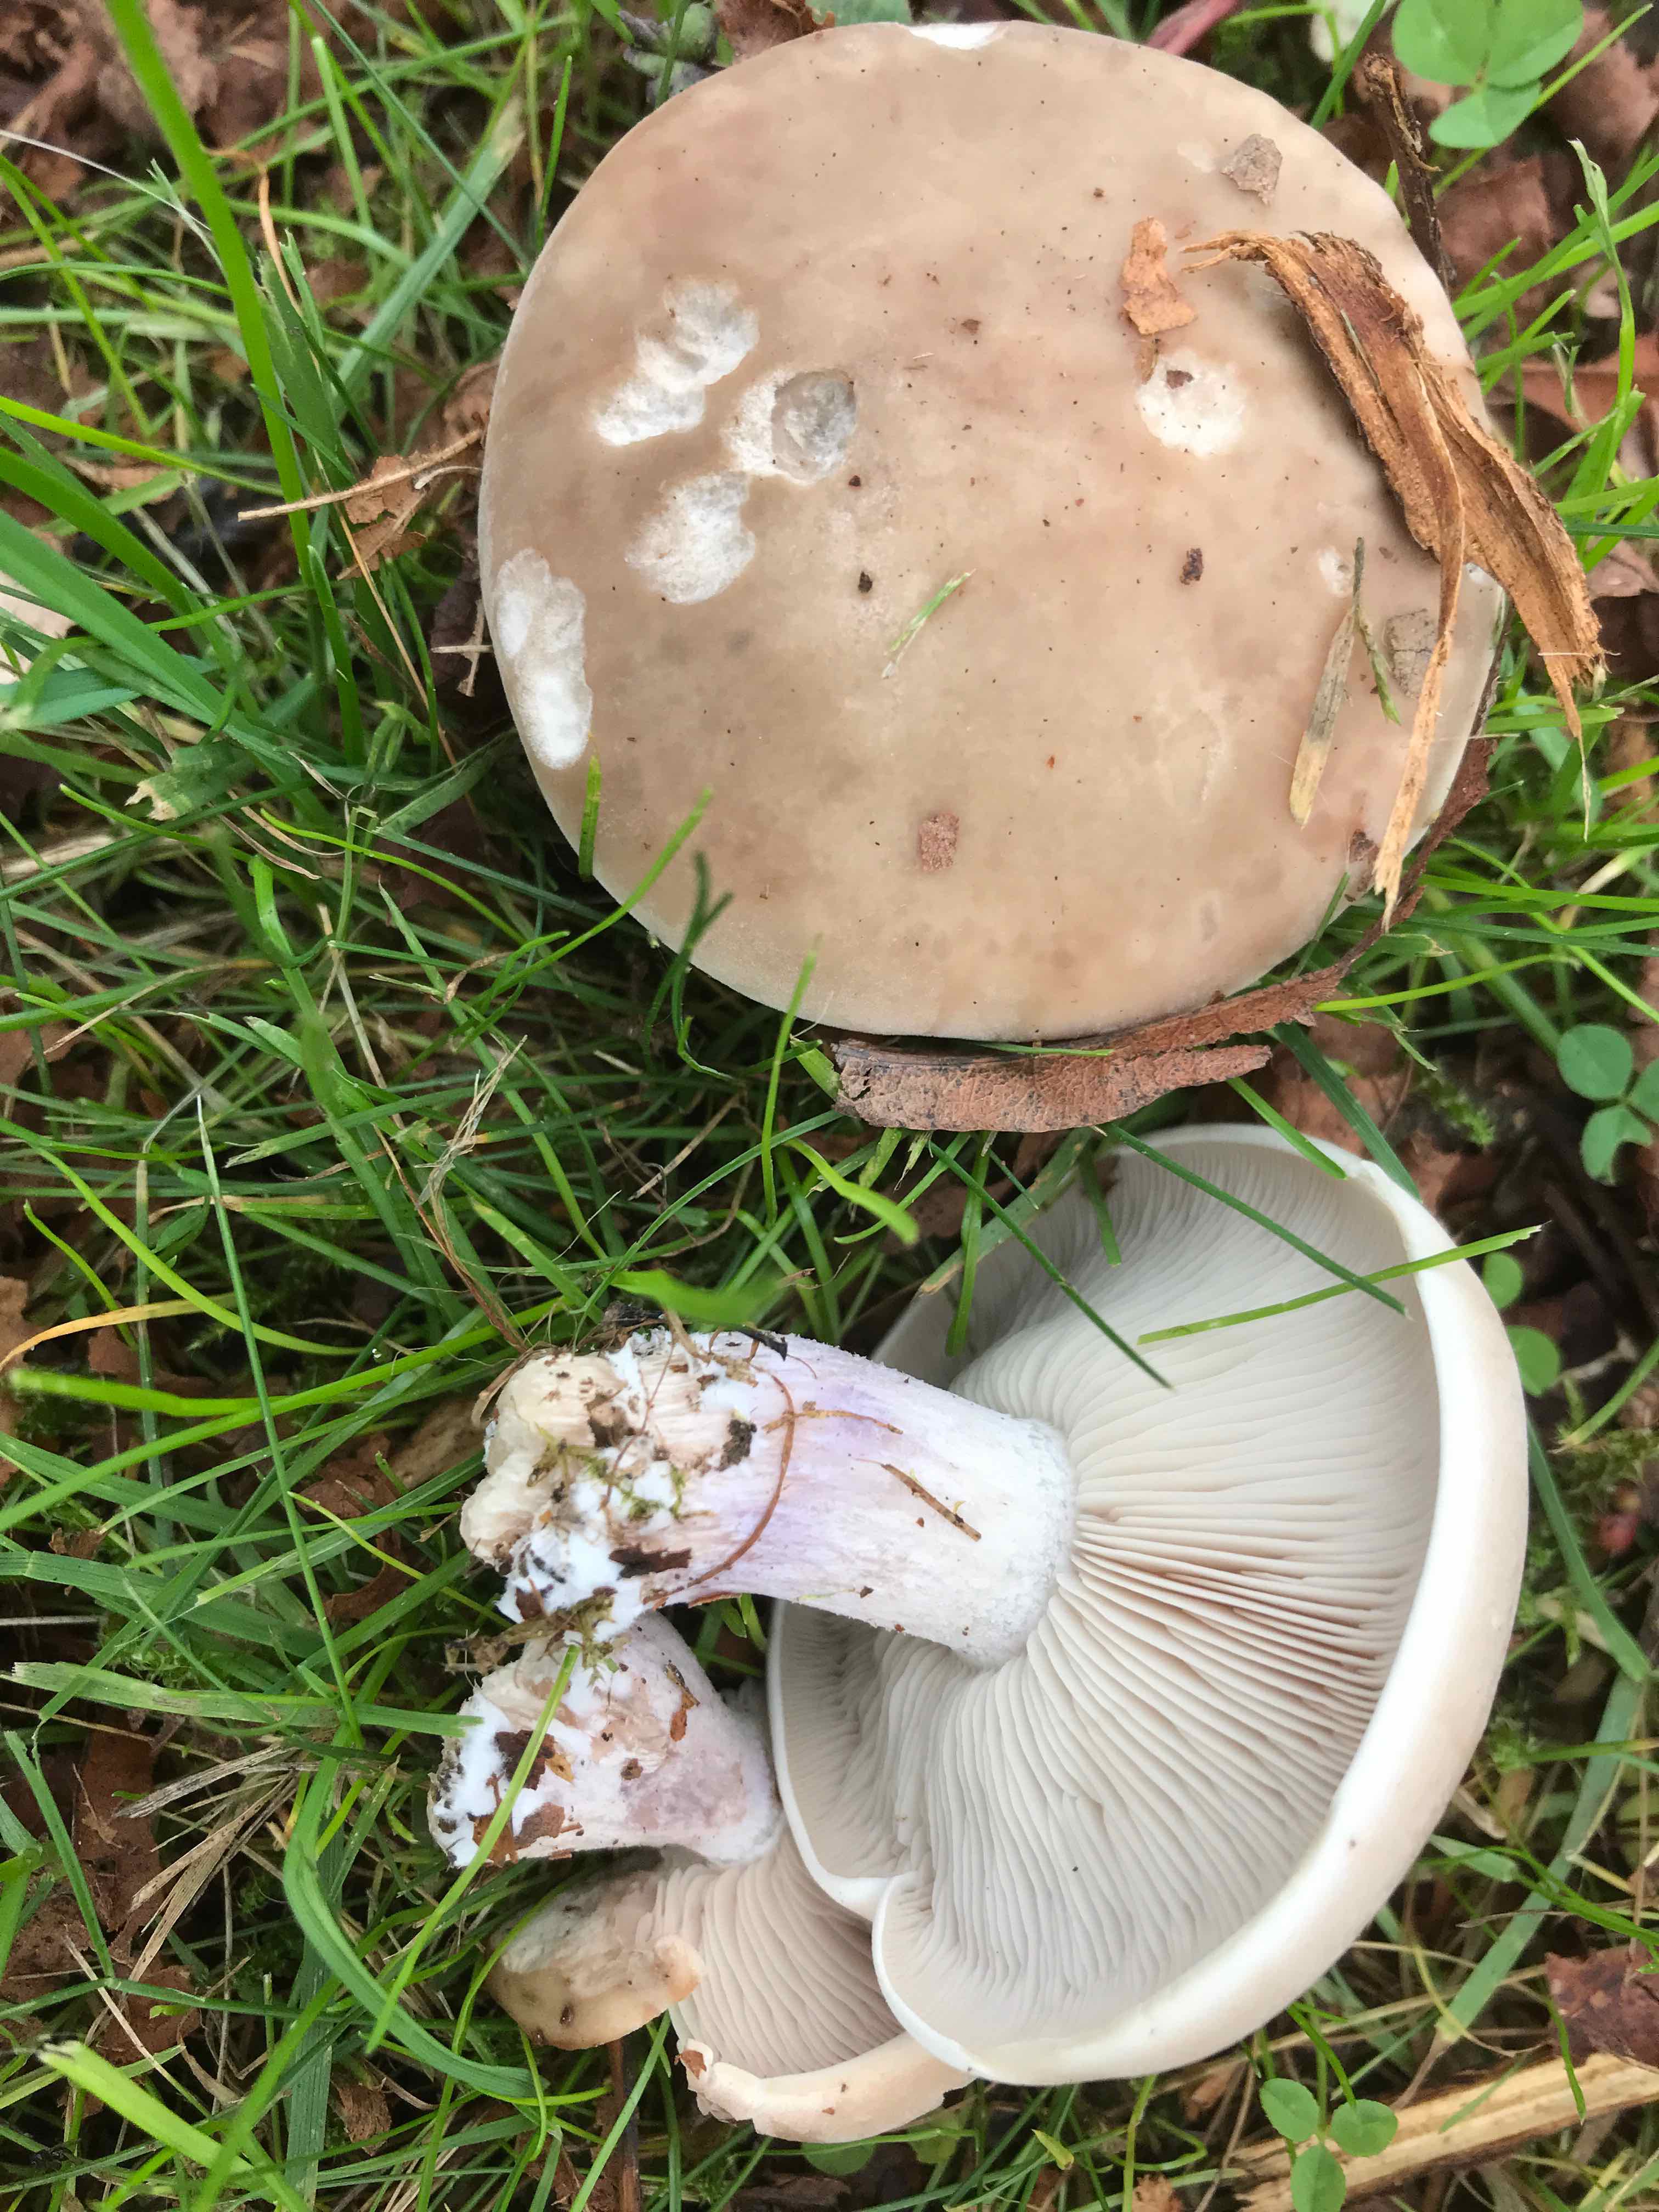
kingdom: Fungi
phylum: Basidiomycota
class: Agaricomycetes
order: Agaricales
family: Tricholomataceae
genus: Lepista
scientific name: Lepista personata
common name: bleg hekseringshat
